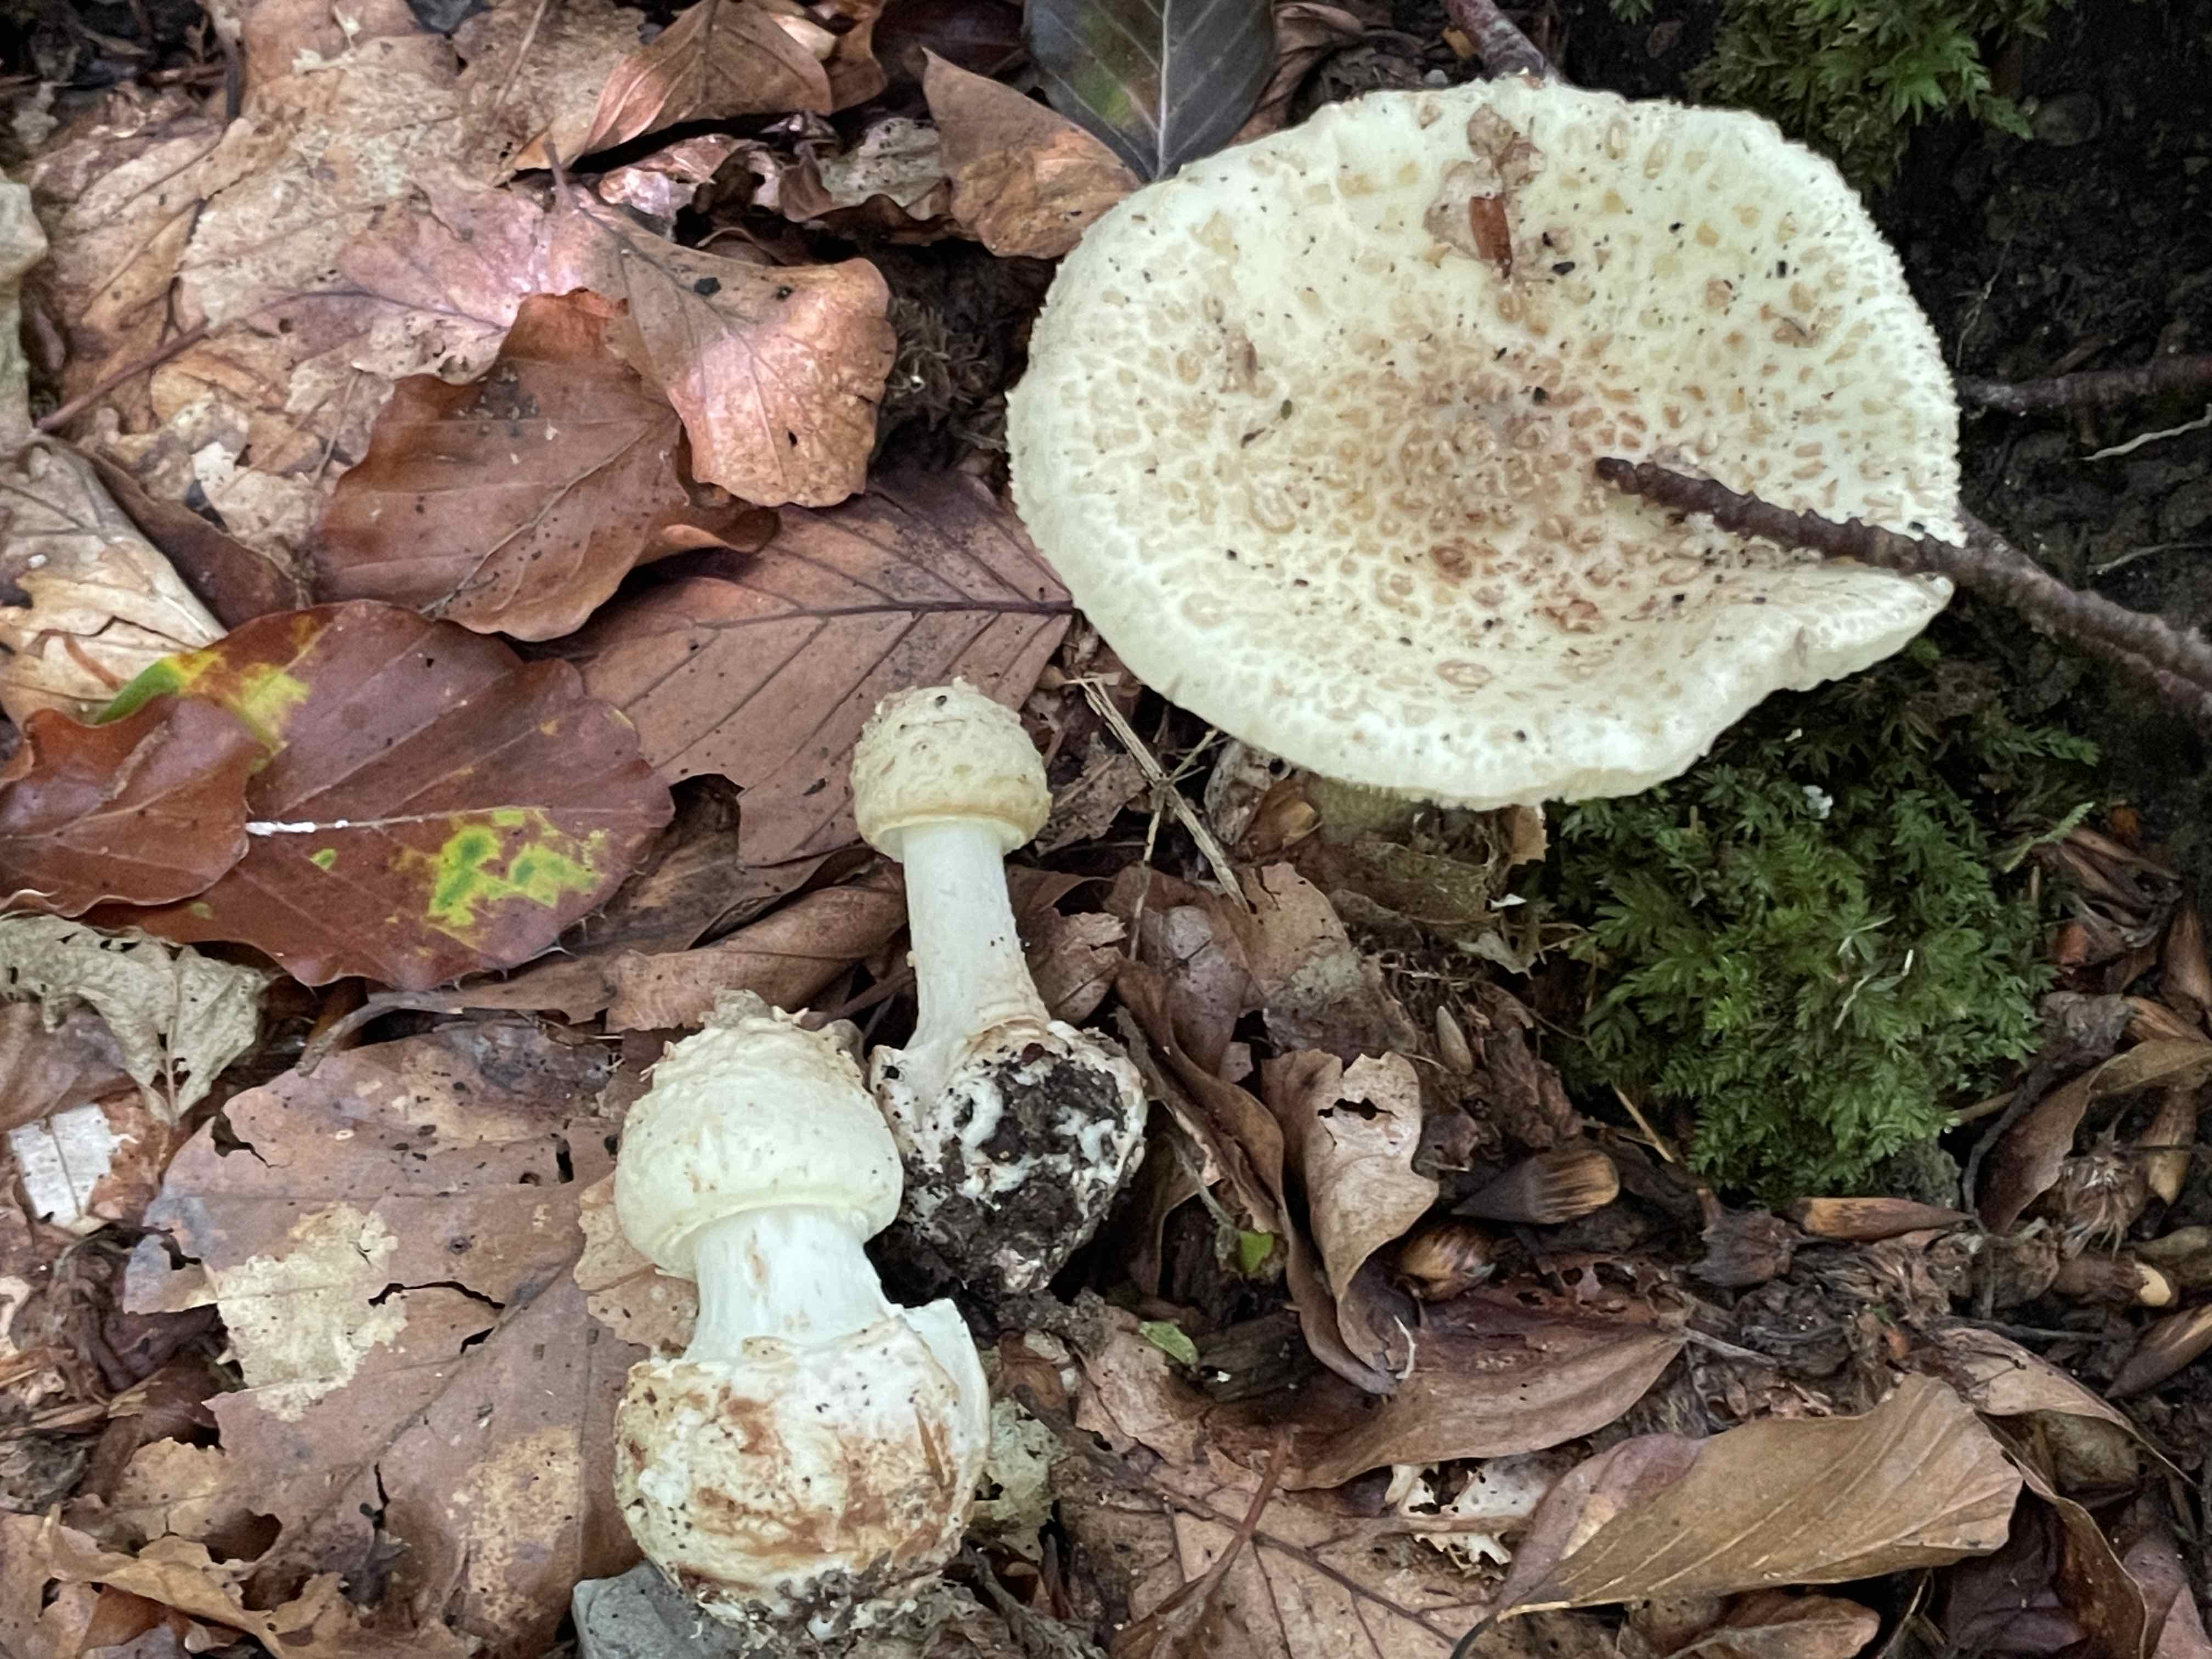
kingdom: Fungi
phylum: Basidiomycota
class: Agaricomycetes
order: Agaricales
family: Amanitaceae
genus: Amanita
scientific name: Amanita citrina
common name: kugleknoldet fluesvamp
